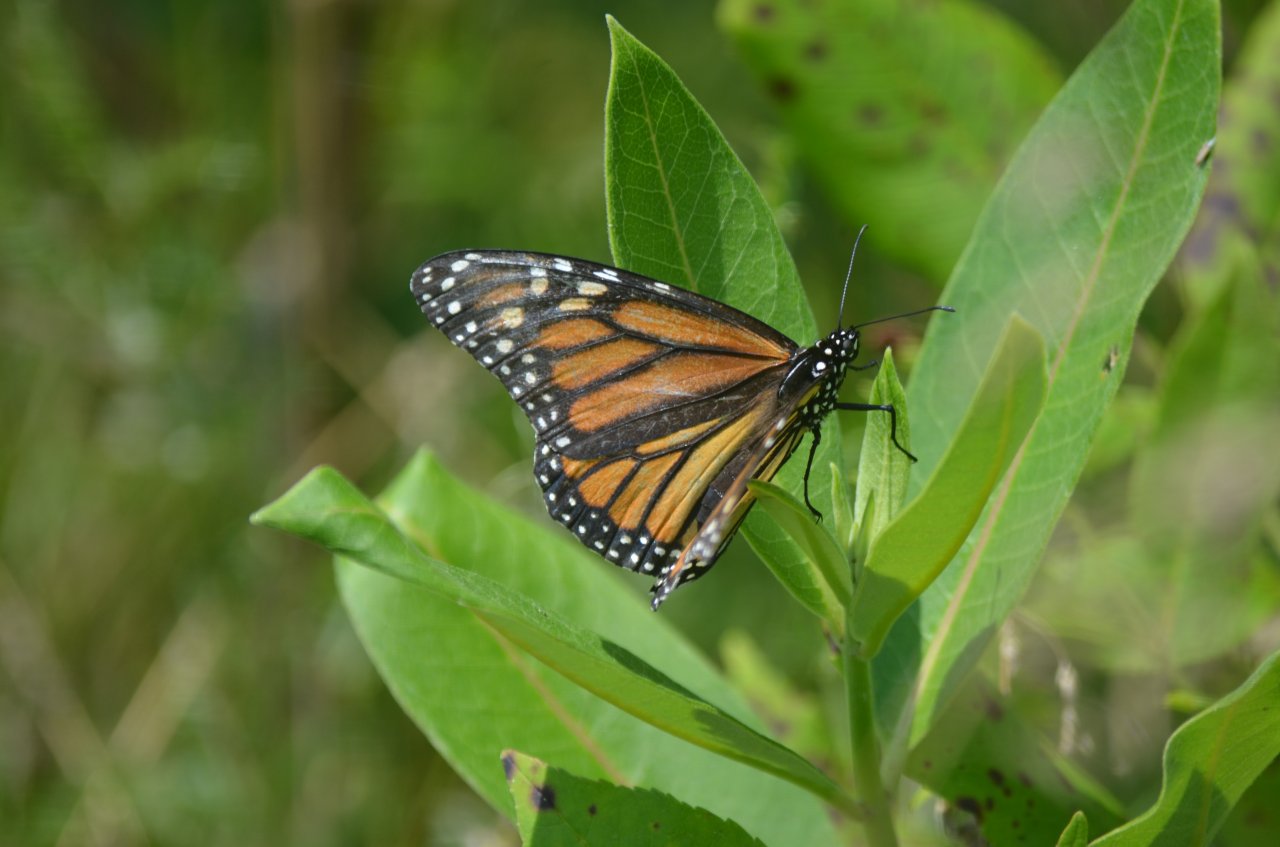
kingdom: Animalia
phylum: Arthropoda
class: Insecta
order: Lepidoptera
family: Nymphalidae
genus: Danaus
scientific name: Danaus plexippus
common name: Monarch
